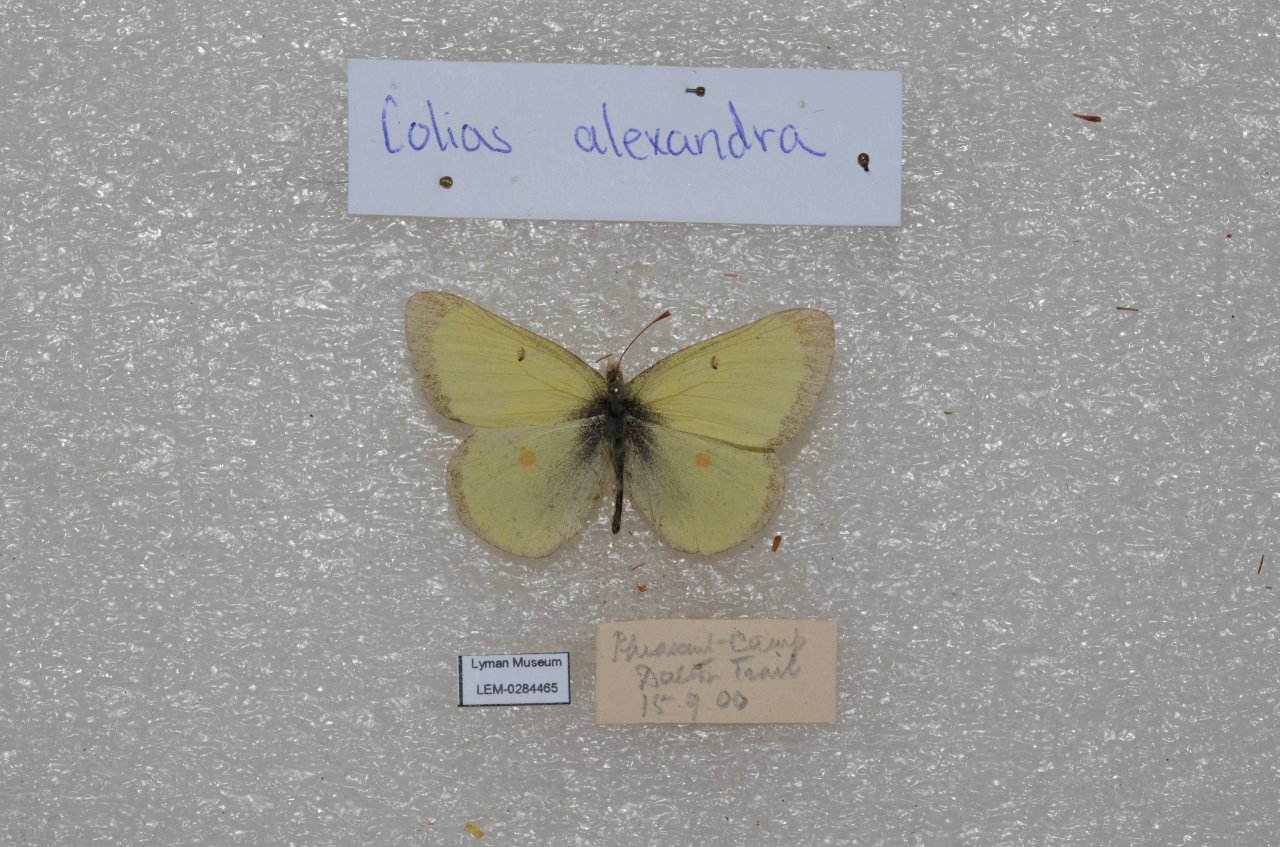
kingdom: Animalia
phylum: Arthropoda
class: Insecta
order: Lepidoptera
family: Pieridae
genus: Colias
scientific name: Colias alexandra
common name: Queen Alexandra's Sulphur
